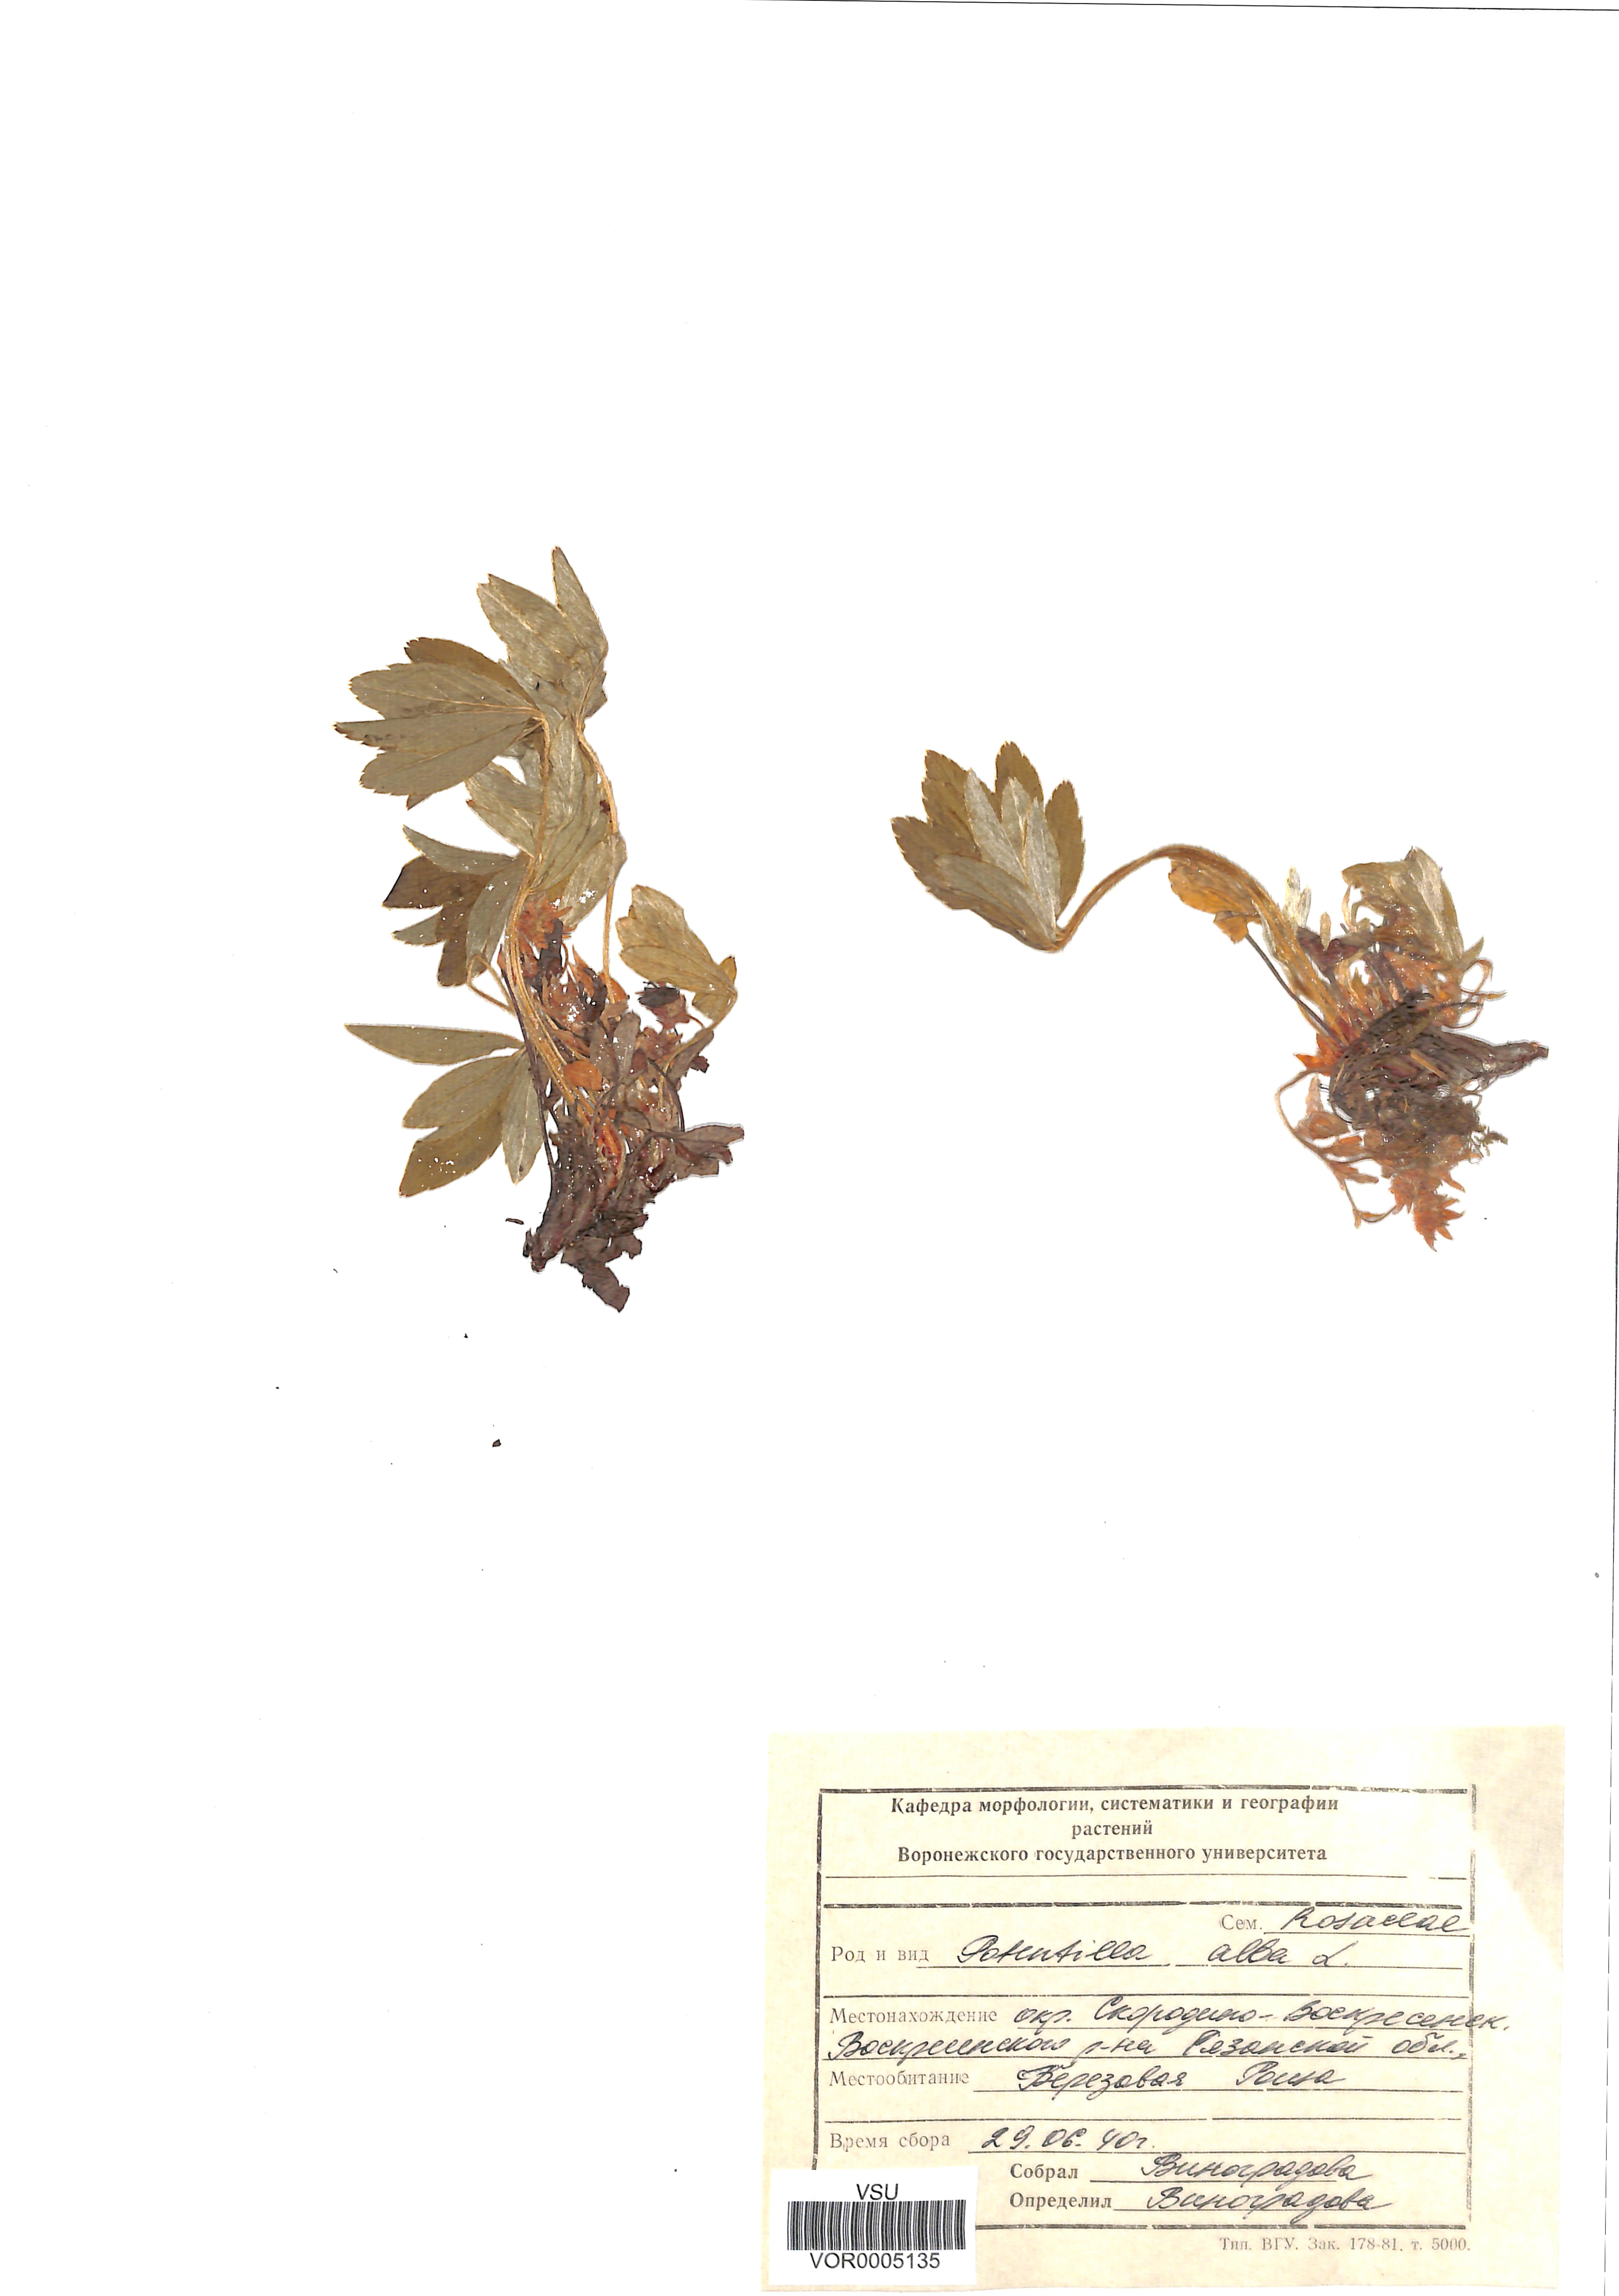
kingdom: Plantae
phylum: Tracheophyta
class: Magnoliopsida
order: Rosales
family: Rosaceae
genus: Potentilla
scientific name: Potentilla alba
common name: White cinquefoil
